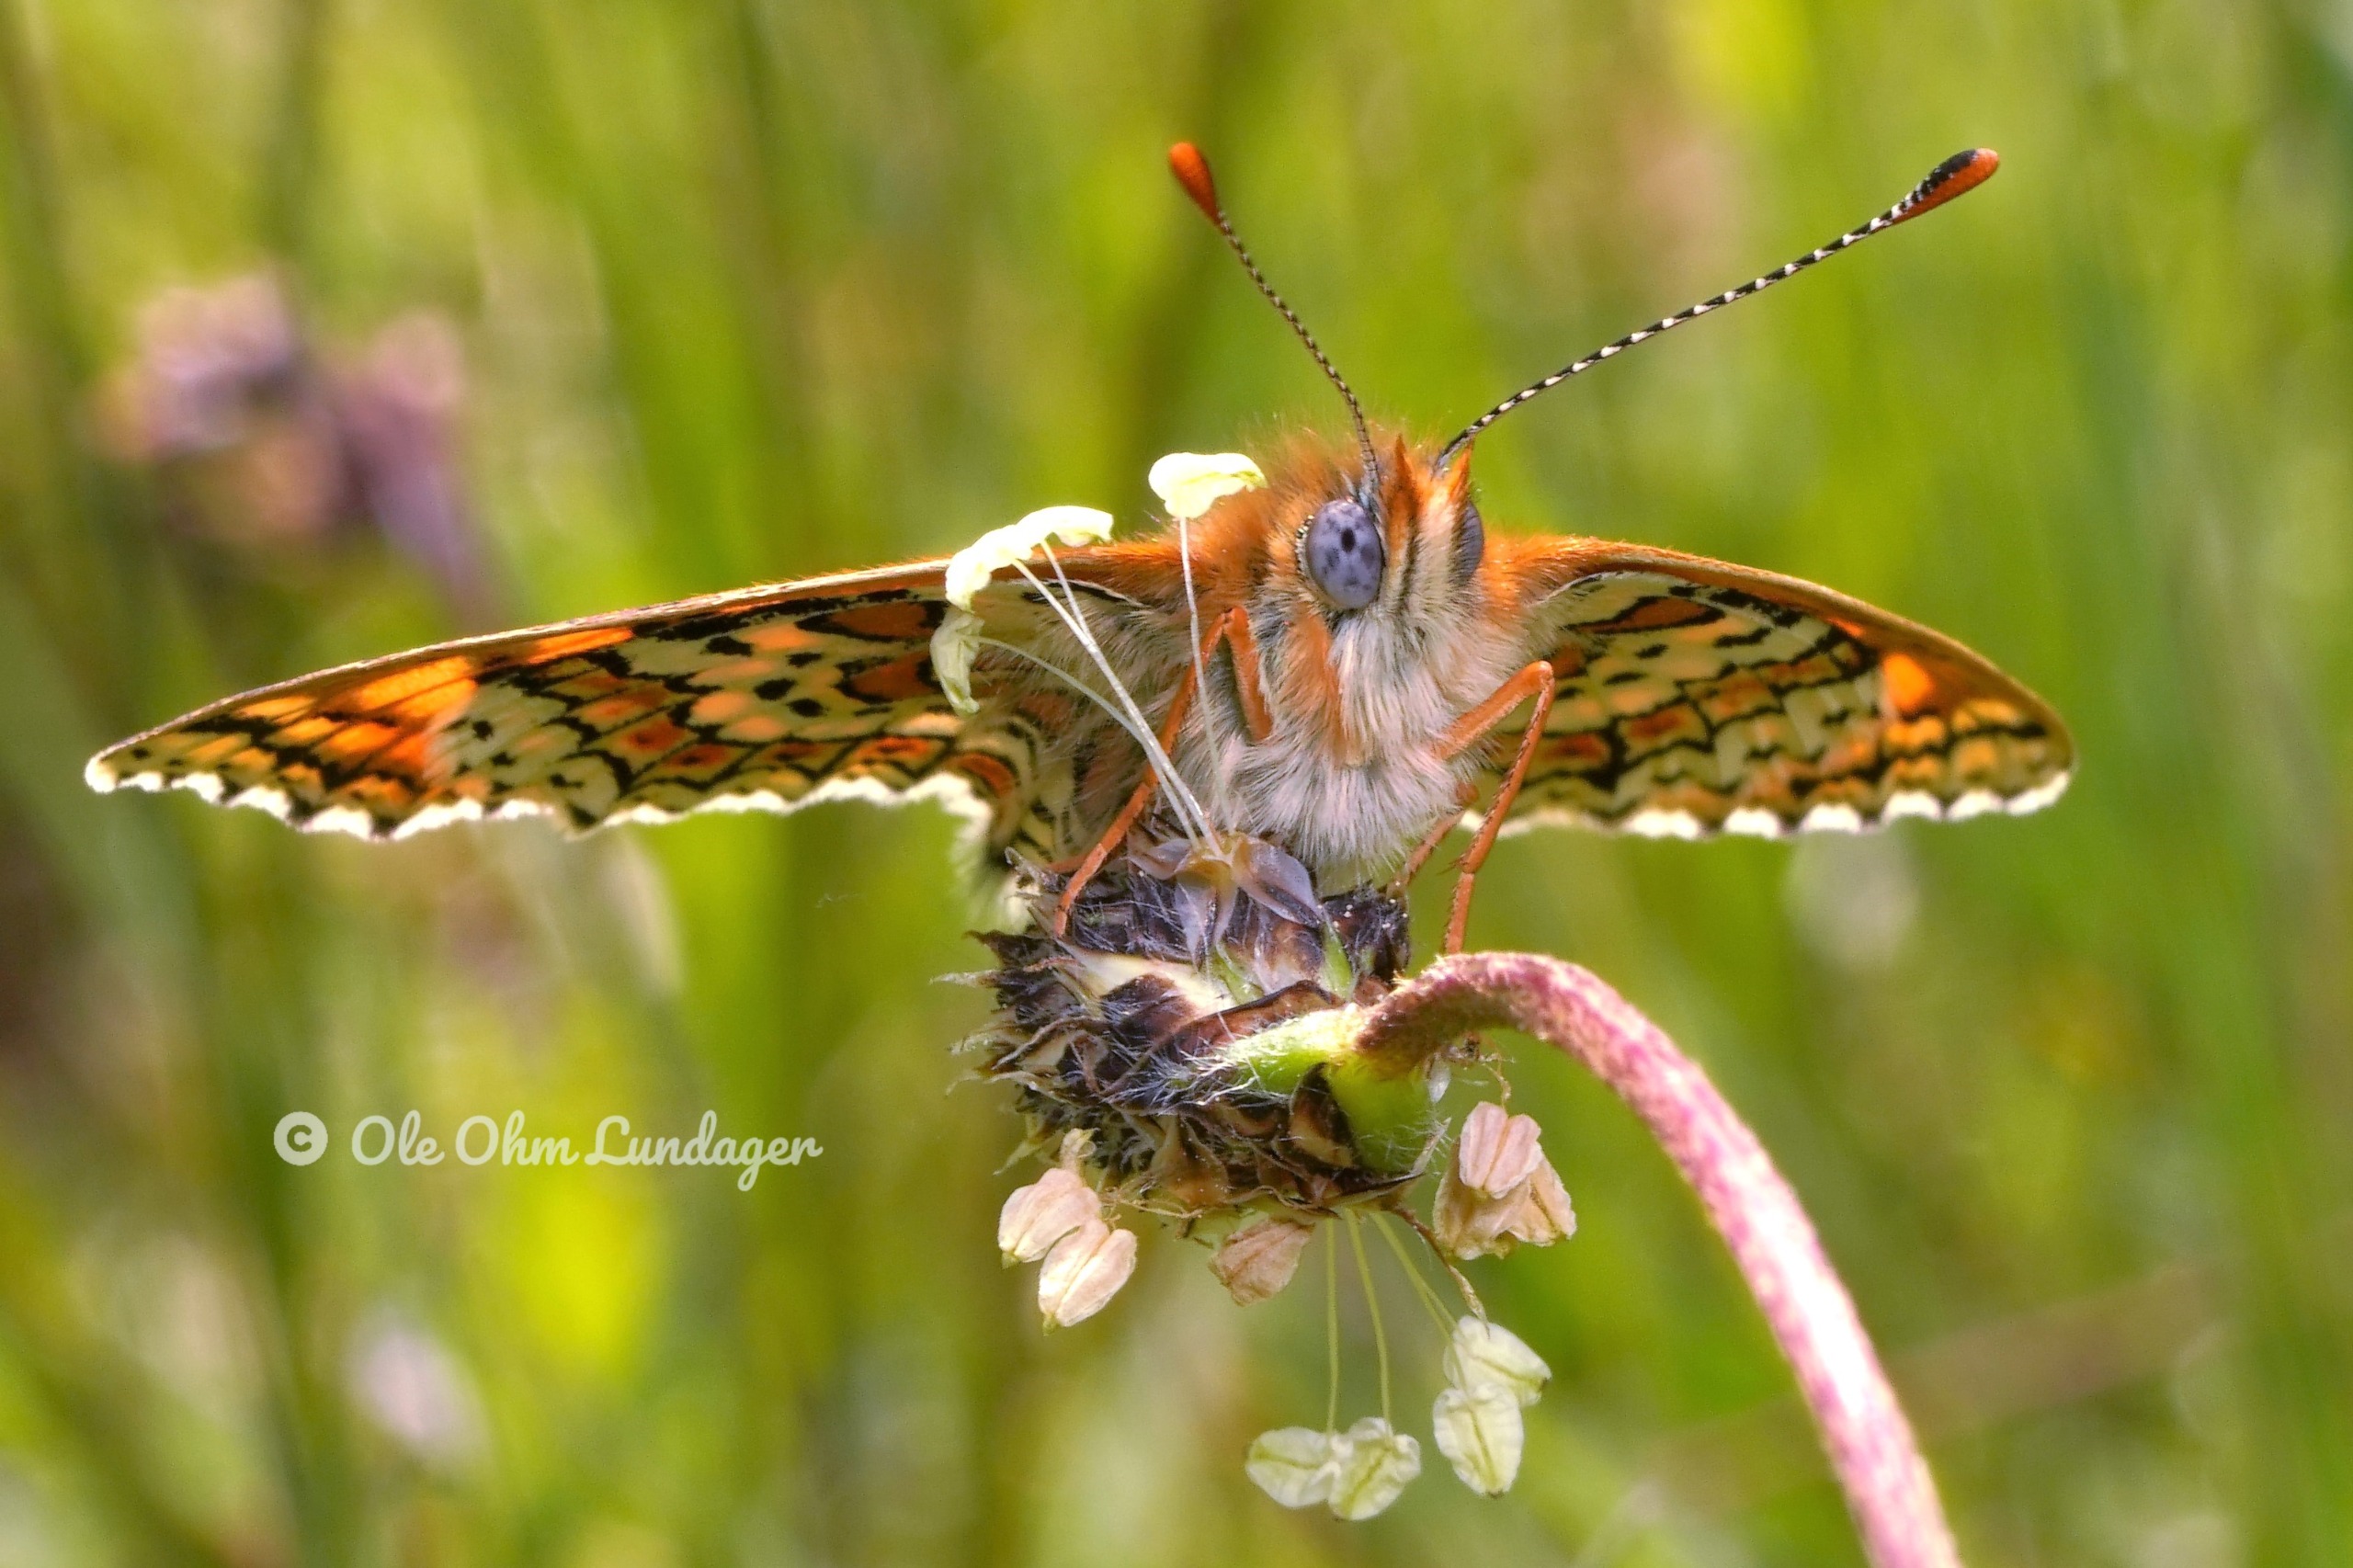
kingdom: Animalia
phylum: Arthropoda
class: Insecta
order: Lepidoptera
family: Nymphalidae
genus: Melitaea
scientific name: Melitaea cinxia
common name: Okkergul pletvinge
